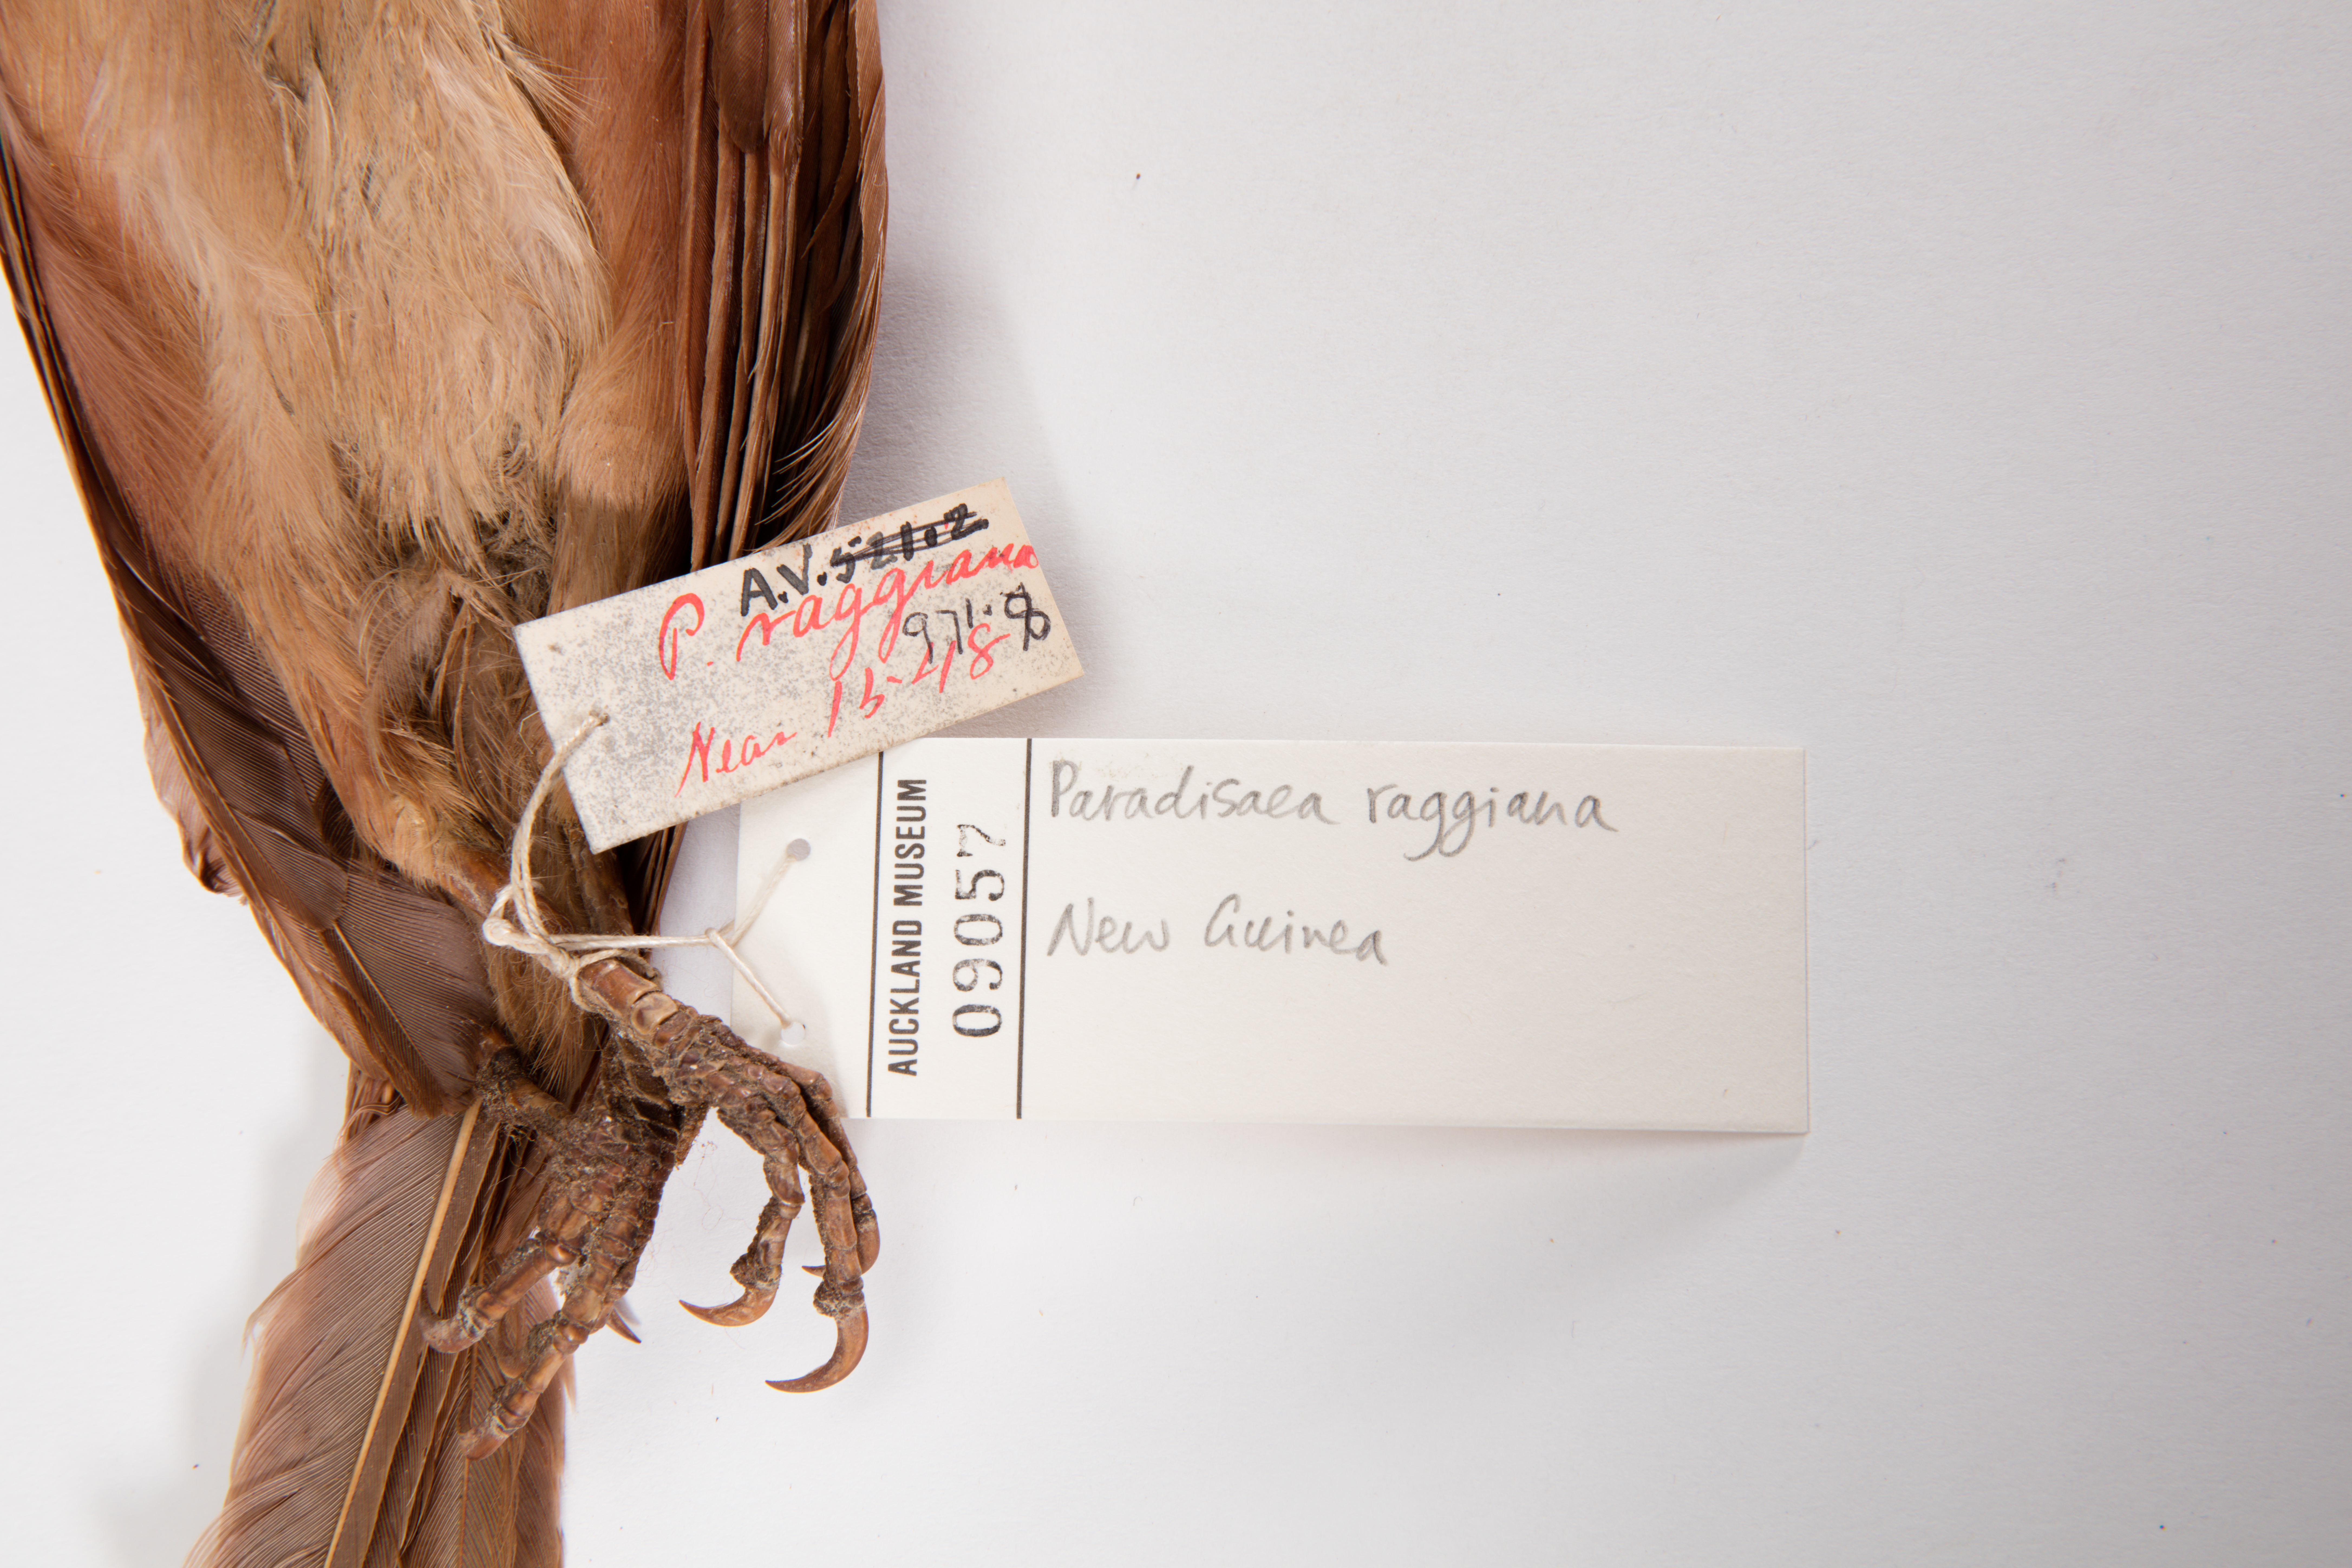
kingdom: Animalia
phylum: Chordata
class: Aves
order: Passeriformes
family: Paradisaeidae
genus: Paradisaea
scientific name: Paradisaea raggiana
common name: Raggiana bird-of-paradise
